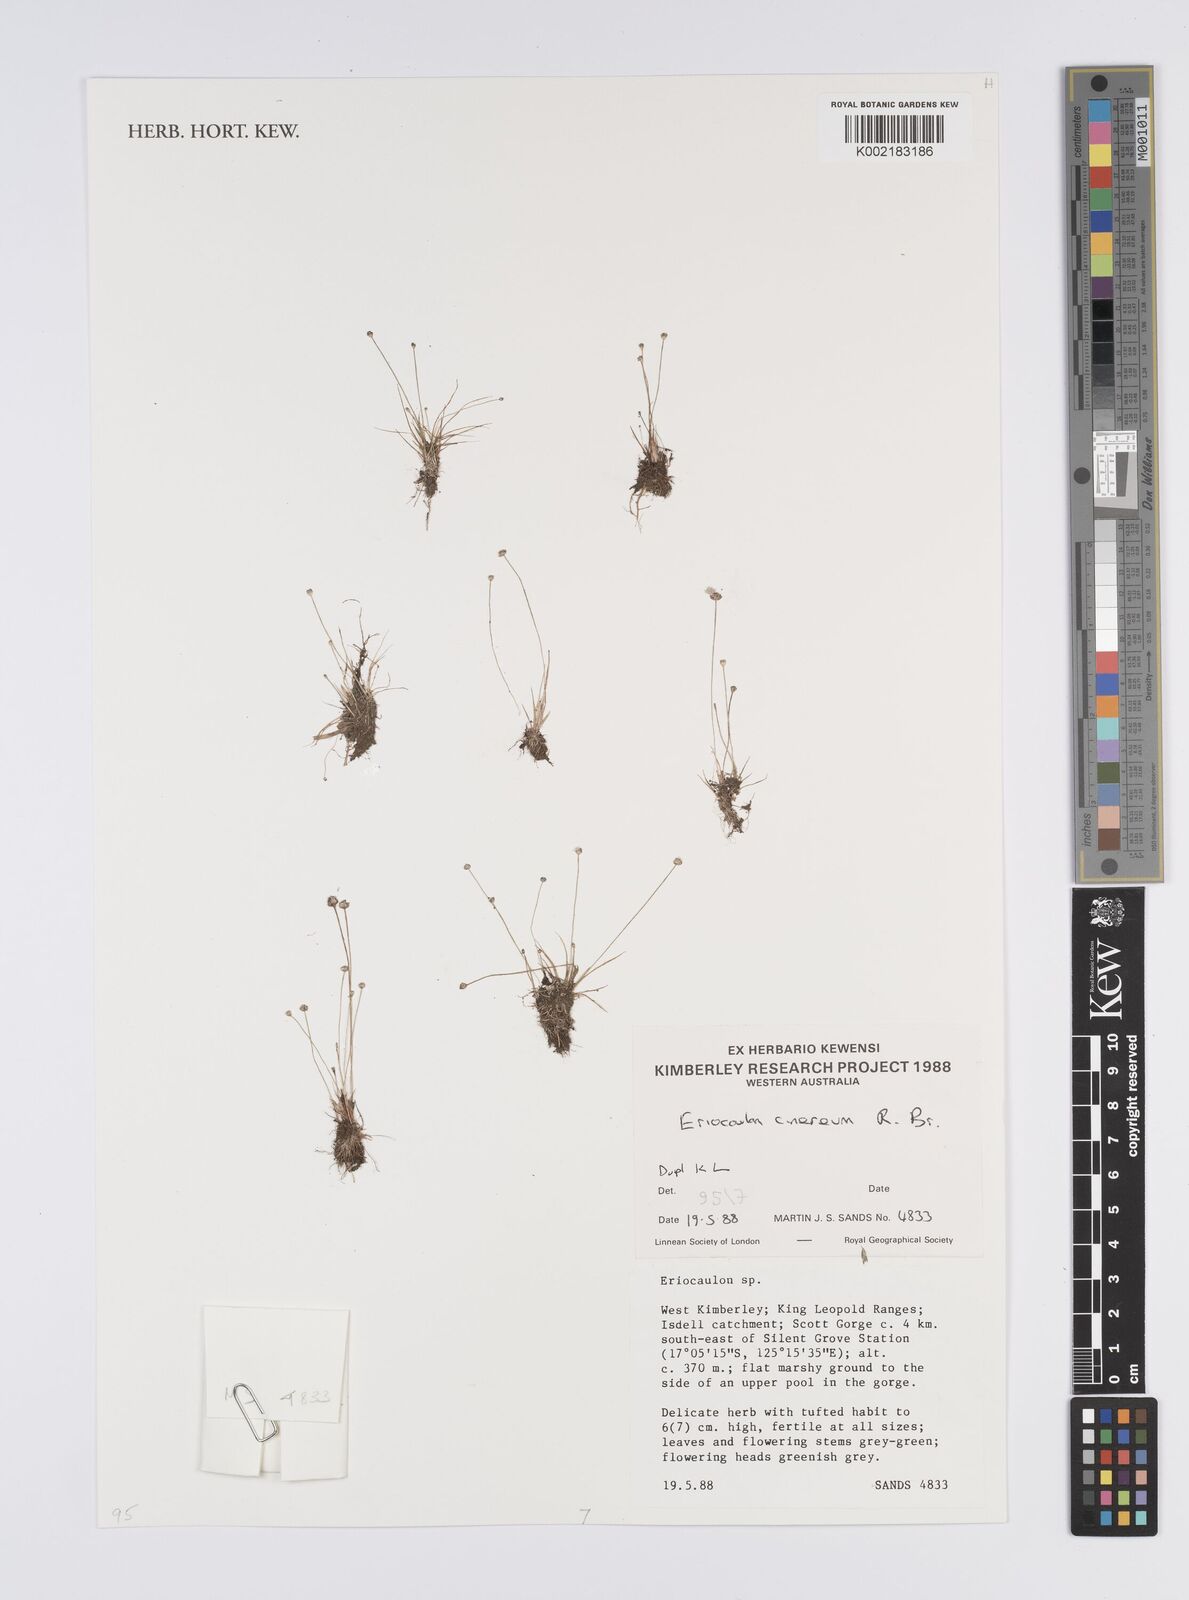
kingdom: Plantae
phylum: Tracheophyta
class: Liliopsida
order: Poales
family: Eriocaulaceae
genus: Eriocaulon
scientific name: Eriocaulon cinereum
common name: Ashy pipewort
